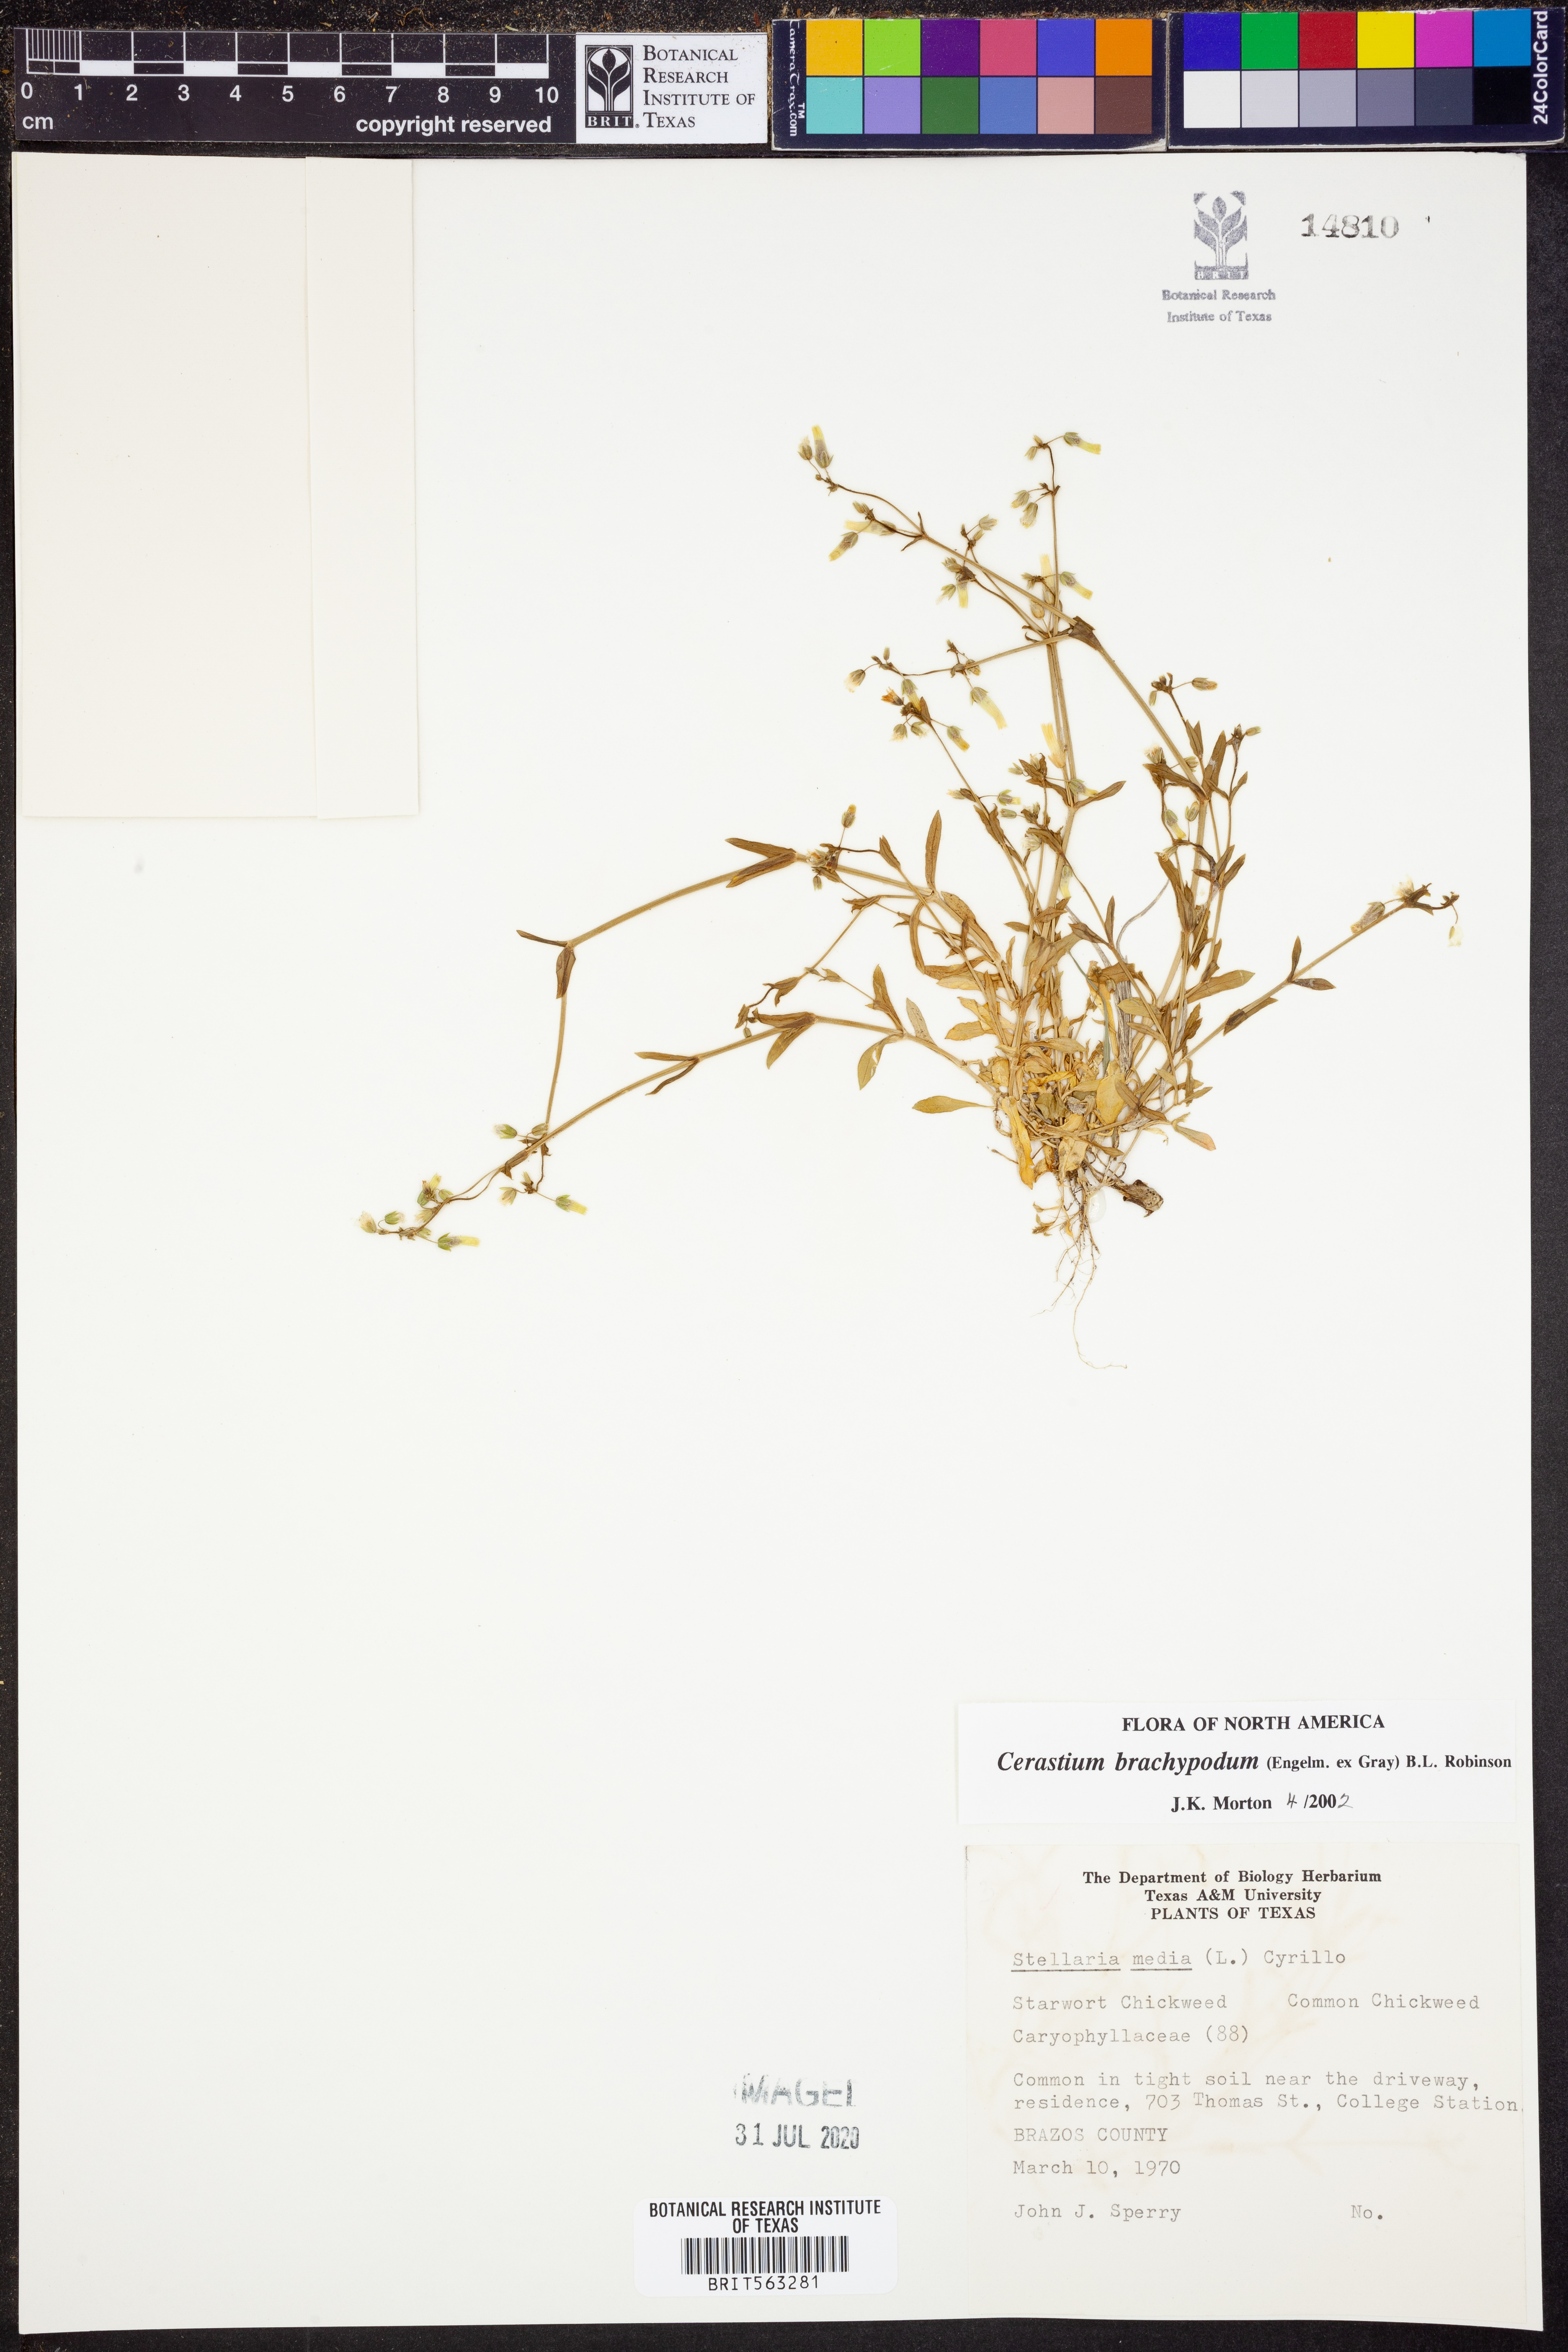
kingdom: Plantae
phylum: Tracheophyta
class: Magnoliopsida
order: Caryophyllales
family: Caryophyllaceae
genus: Cerastium
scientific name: Cerastium brachypodum
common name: Short-pedicelled nodding chickweed
